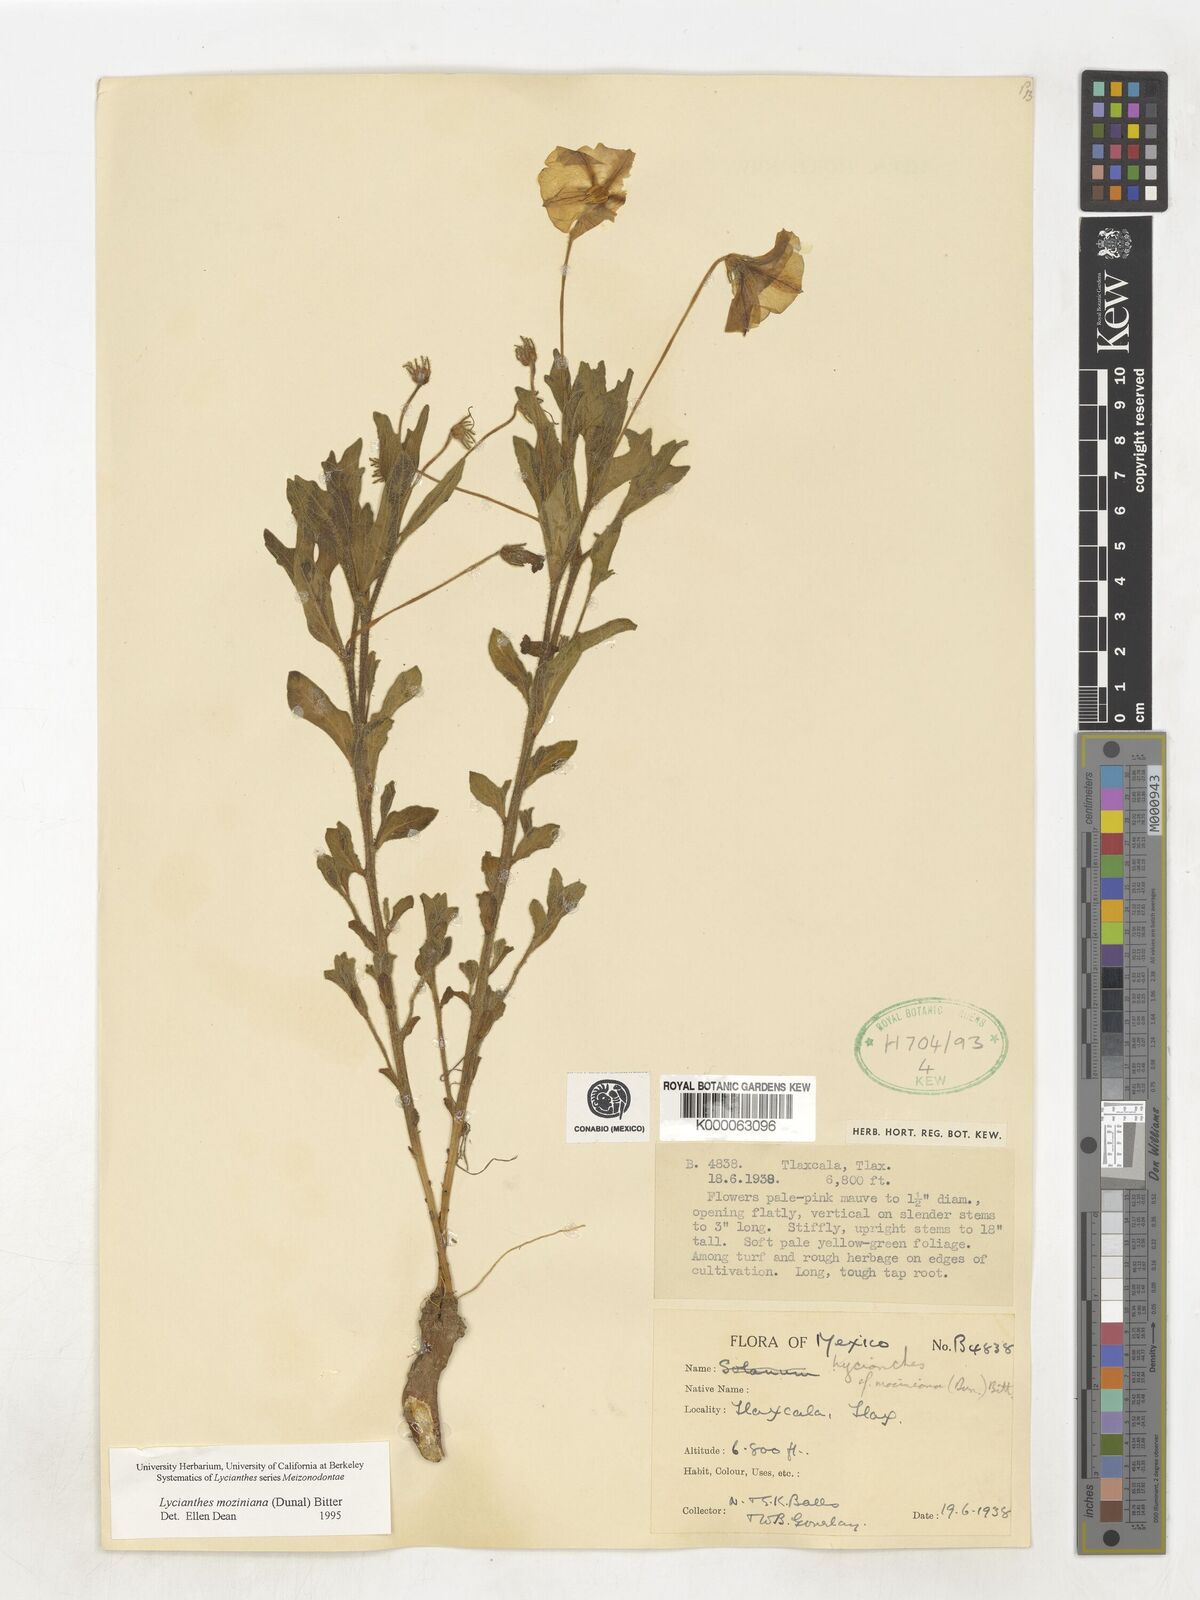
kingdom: Plantae
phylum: Tracheophyta
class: Magnoliopsida
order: Solanales
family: Solanaceae
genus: Lycianthes
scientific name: Lycianthes mozinoana
